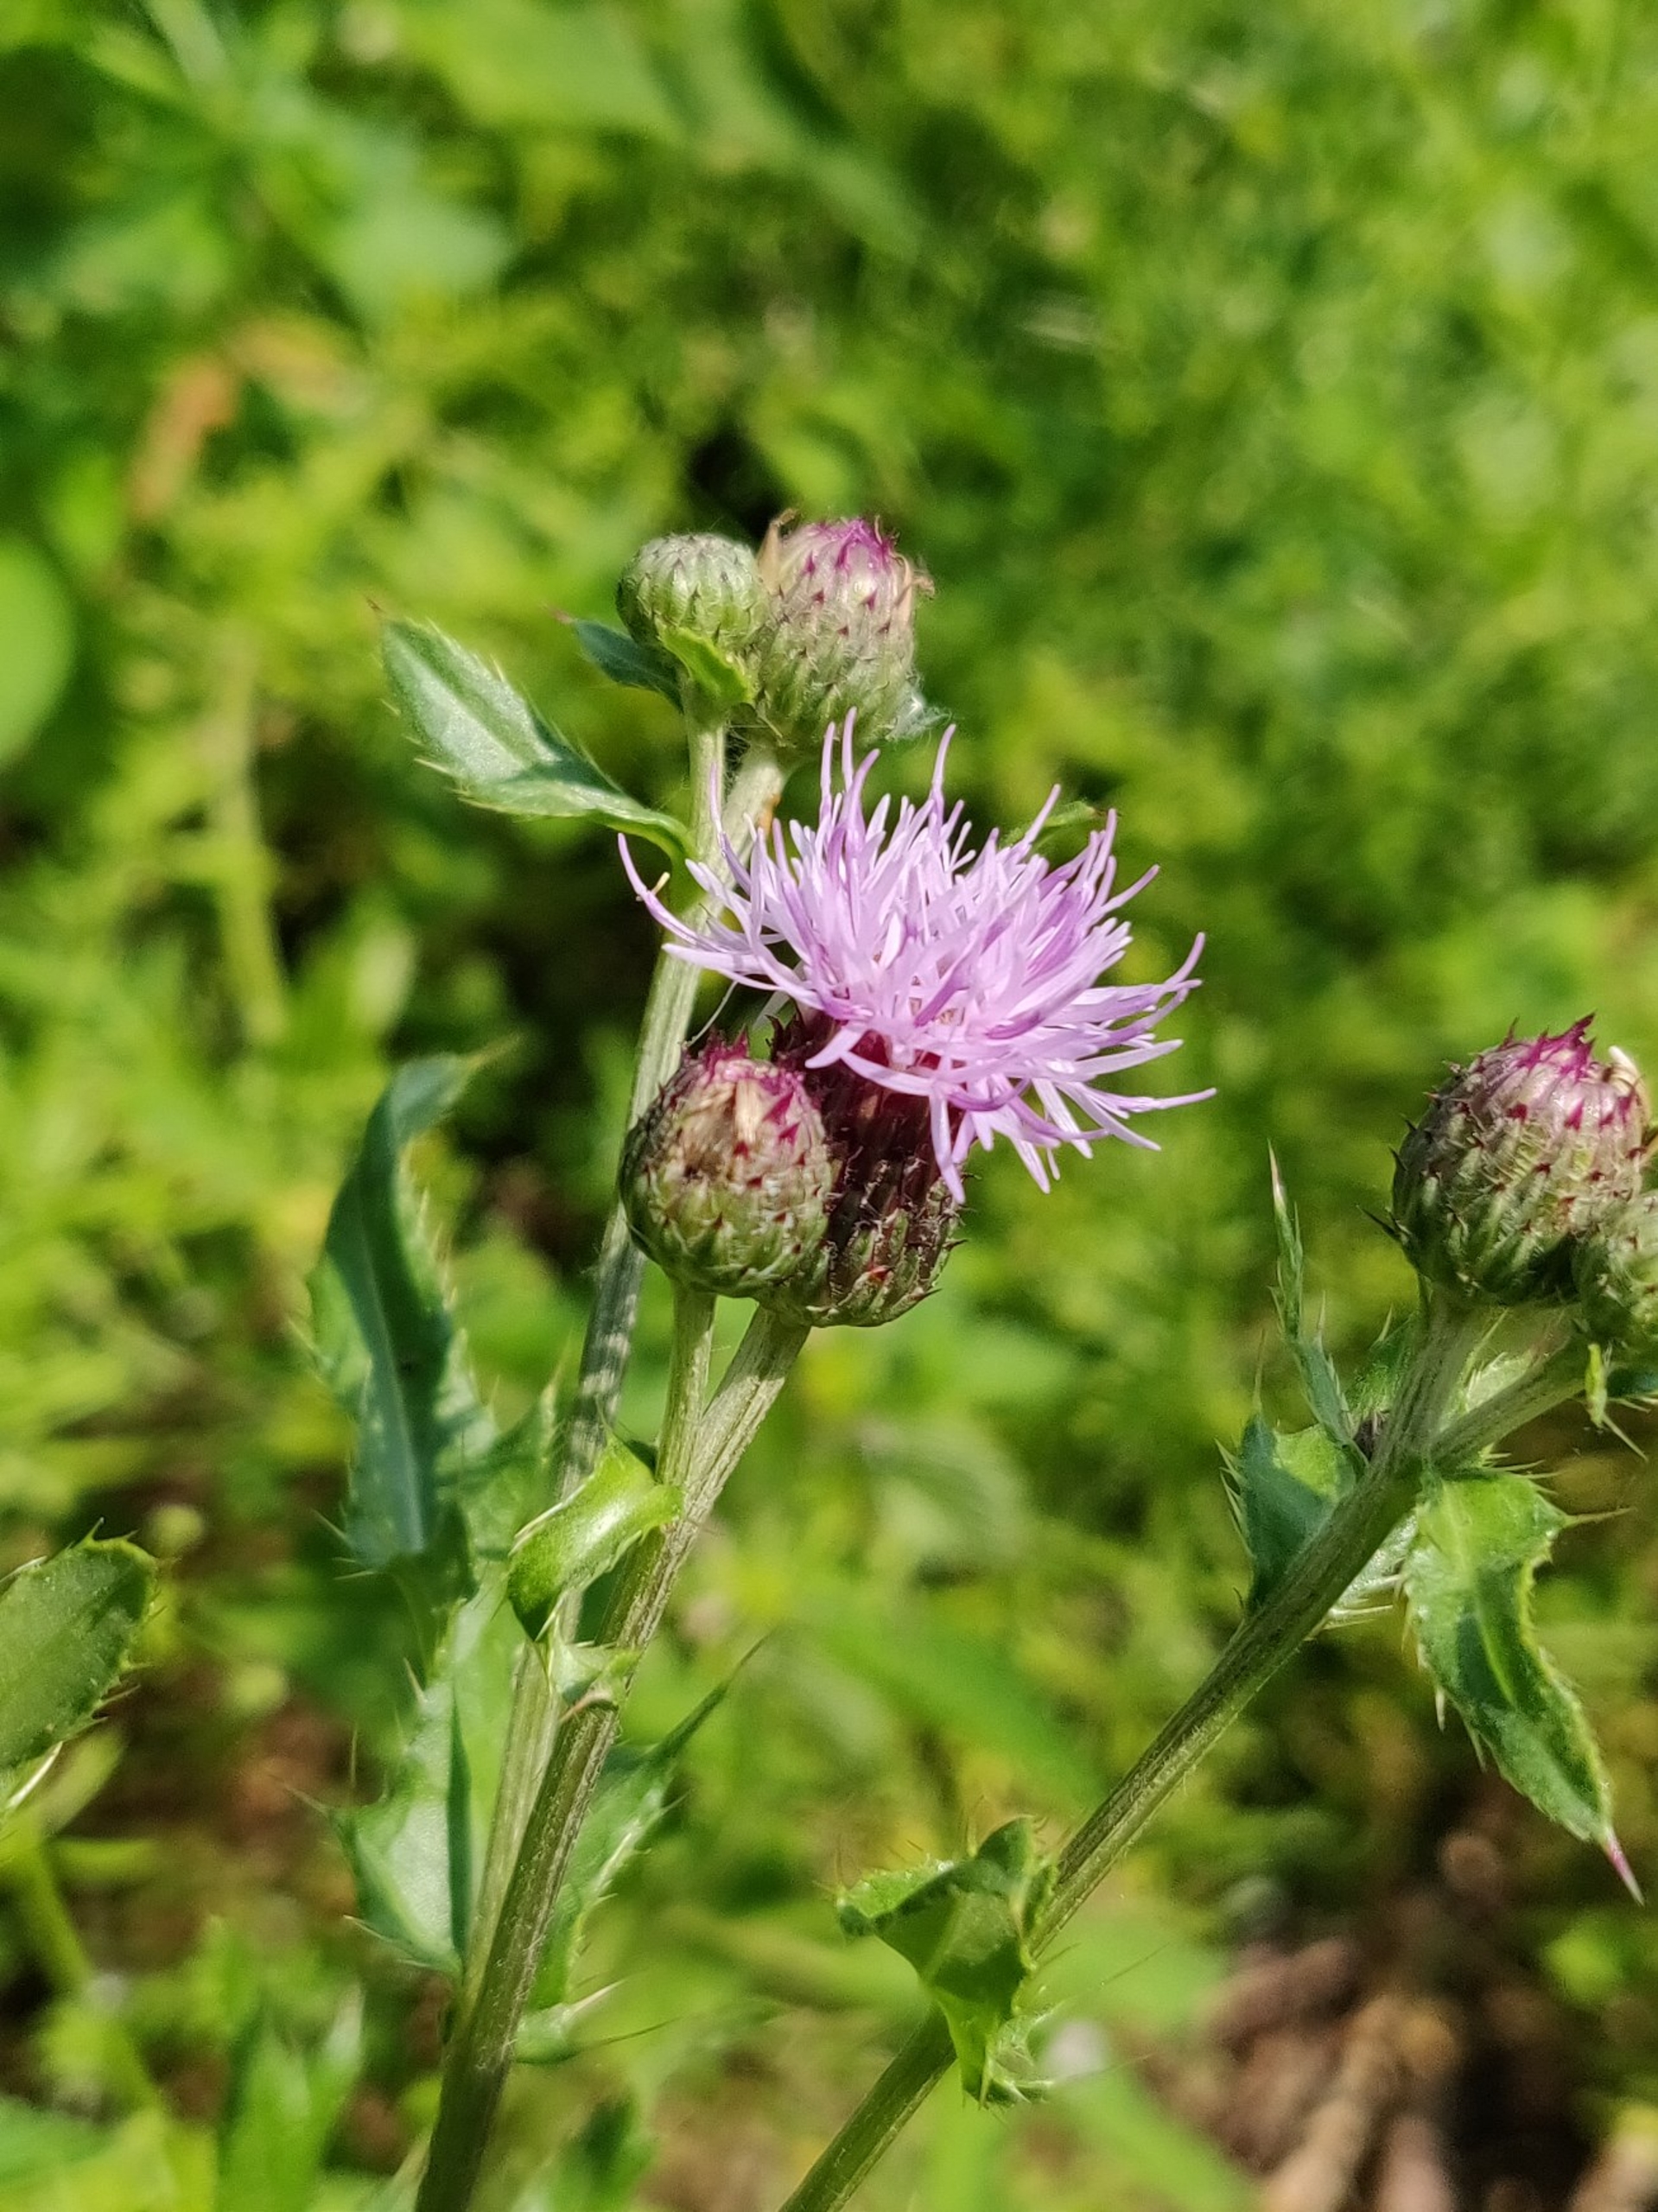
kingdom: Plantae
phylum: Tracheophyta
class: Magnoliopsida
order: Asterales
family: Asteraceae
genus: Cirsium
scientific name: Cirsium arvense
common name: Ager-tidsel
